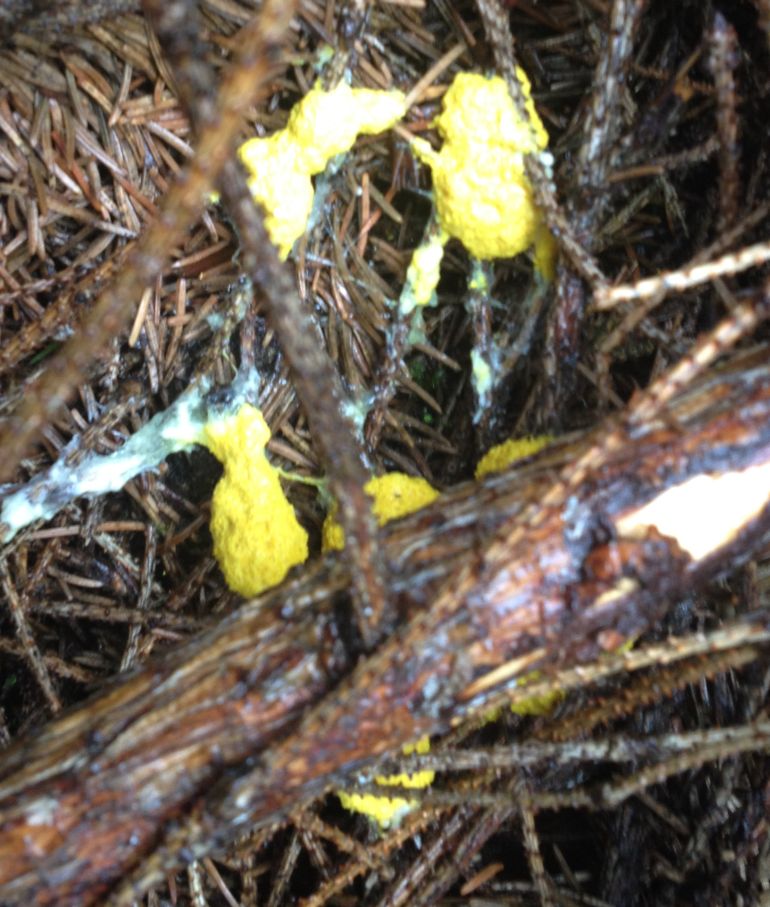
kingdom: Protozoa
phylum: Mycetozoa
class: Myxomycetes
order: Physarales
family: Physaraceae
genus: Fuligo
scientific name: Fuligo septica
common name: gul troldsmør
